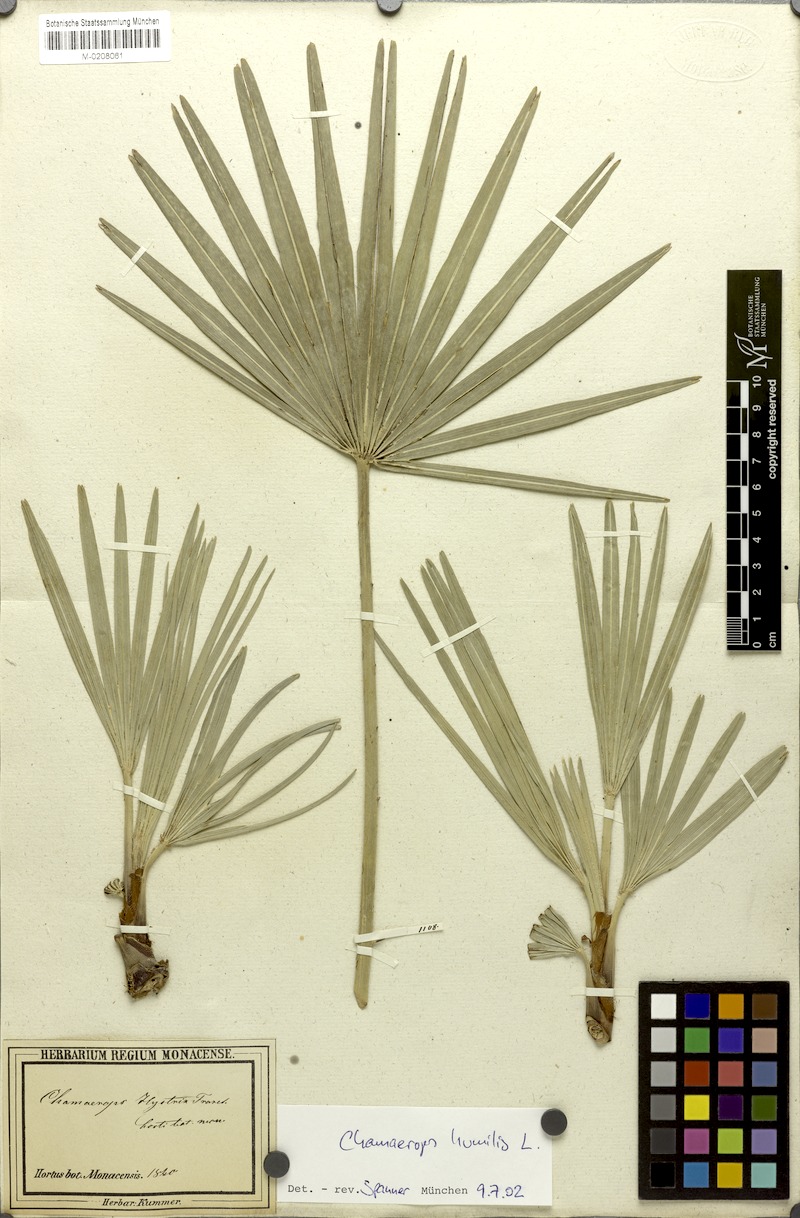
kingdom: Plantae
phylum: Tracheophyta
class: Liliopsida
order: Arecales
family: Arecaceae
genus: Chamaerops
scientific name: Chamaerops humilis
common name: Dwarf fan palm
